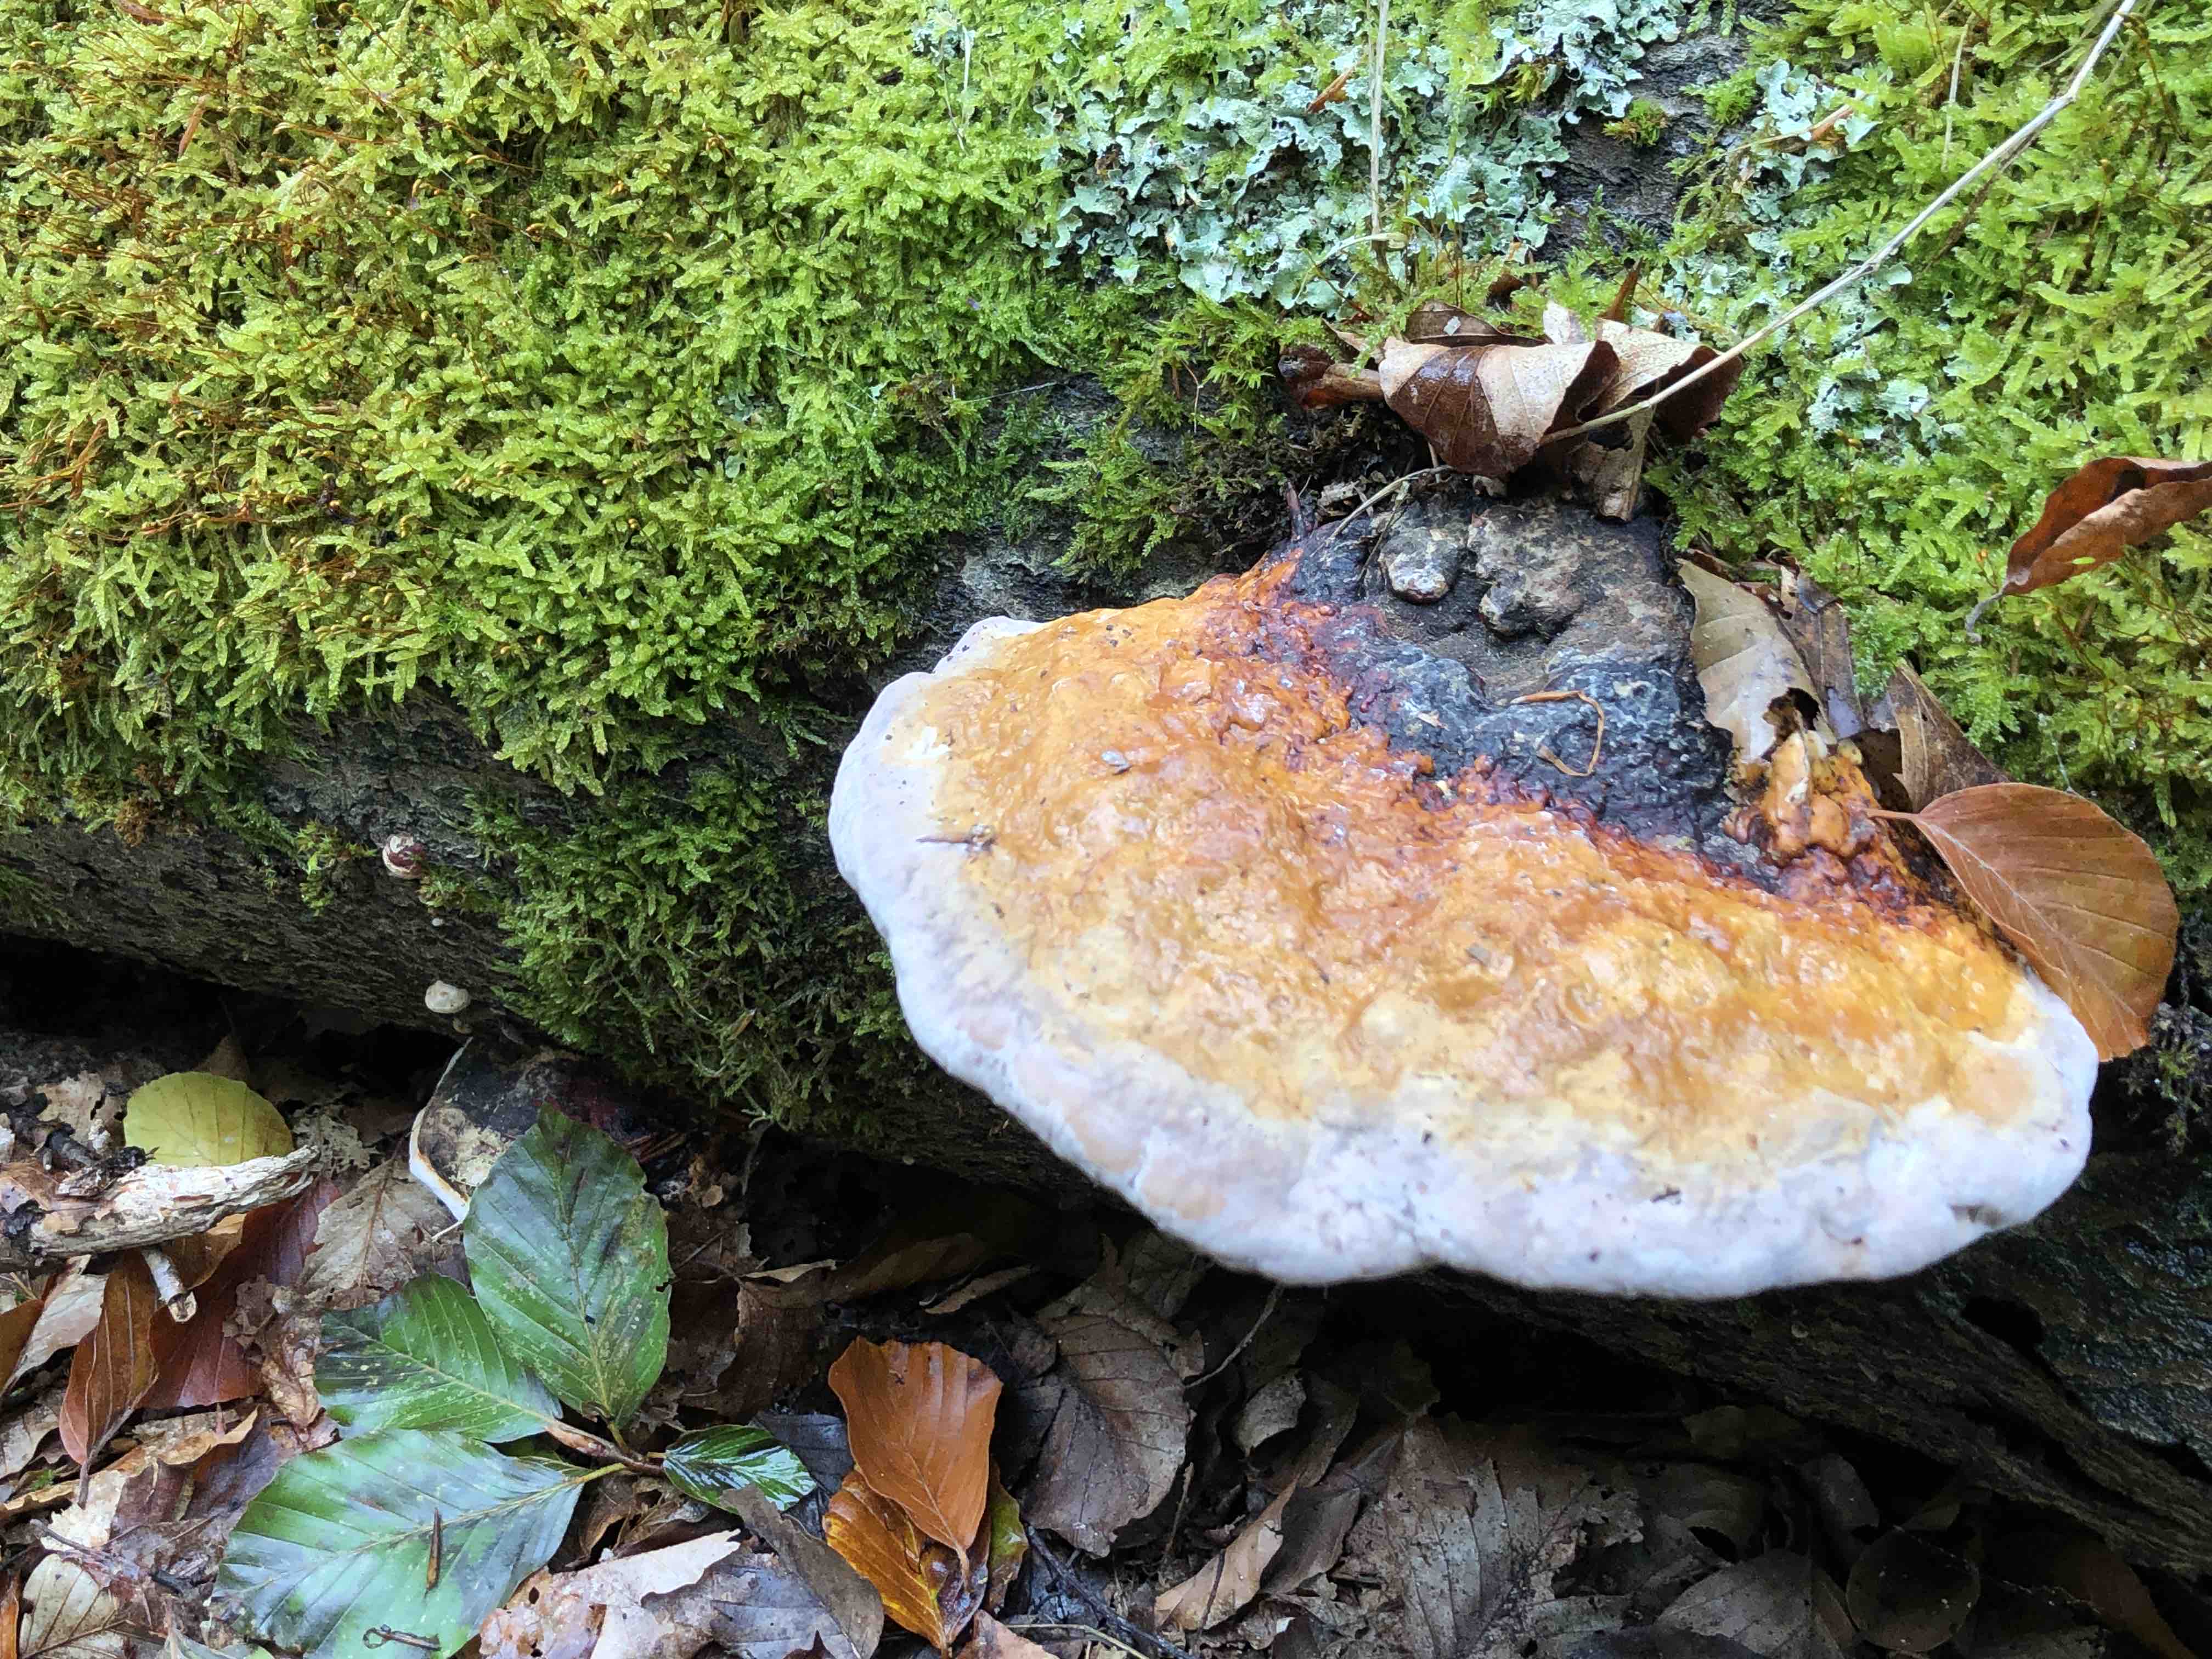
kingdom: Fungi
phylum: Basidiomycota
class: Agaricomycetes
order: Polyporales
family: Fomitopsidaceae
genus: Fomitopsis
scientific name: Fomitopsis pinicola
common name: randbæltet hovporesvamp
